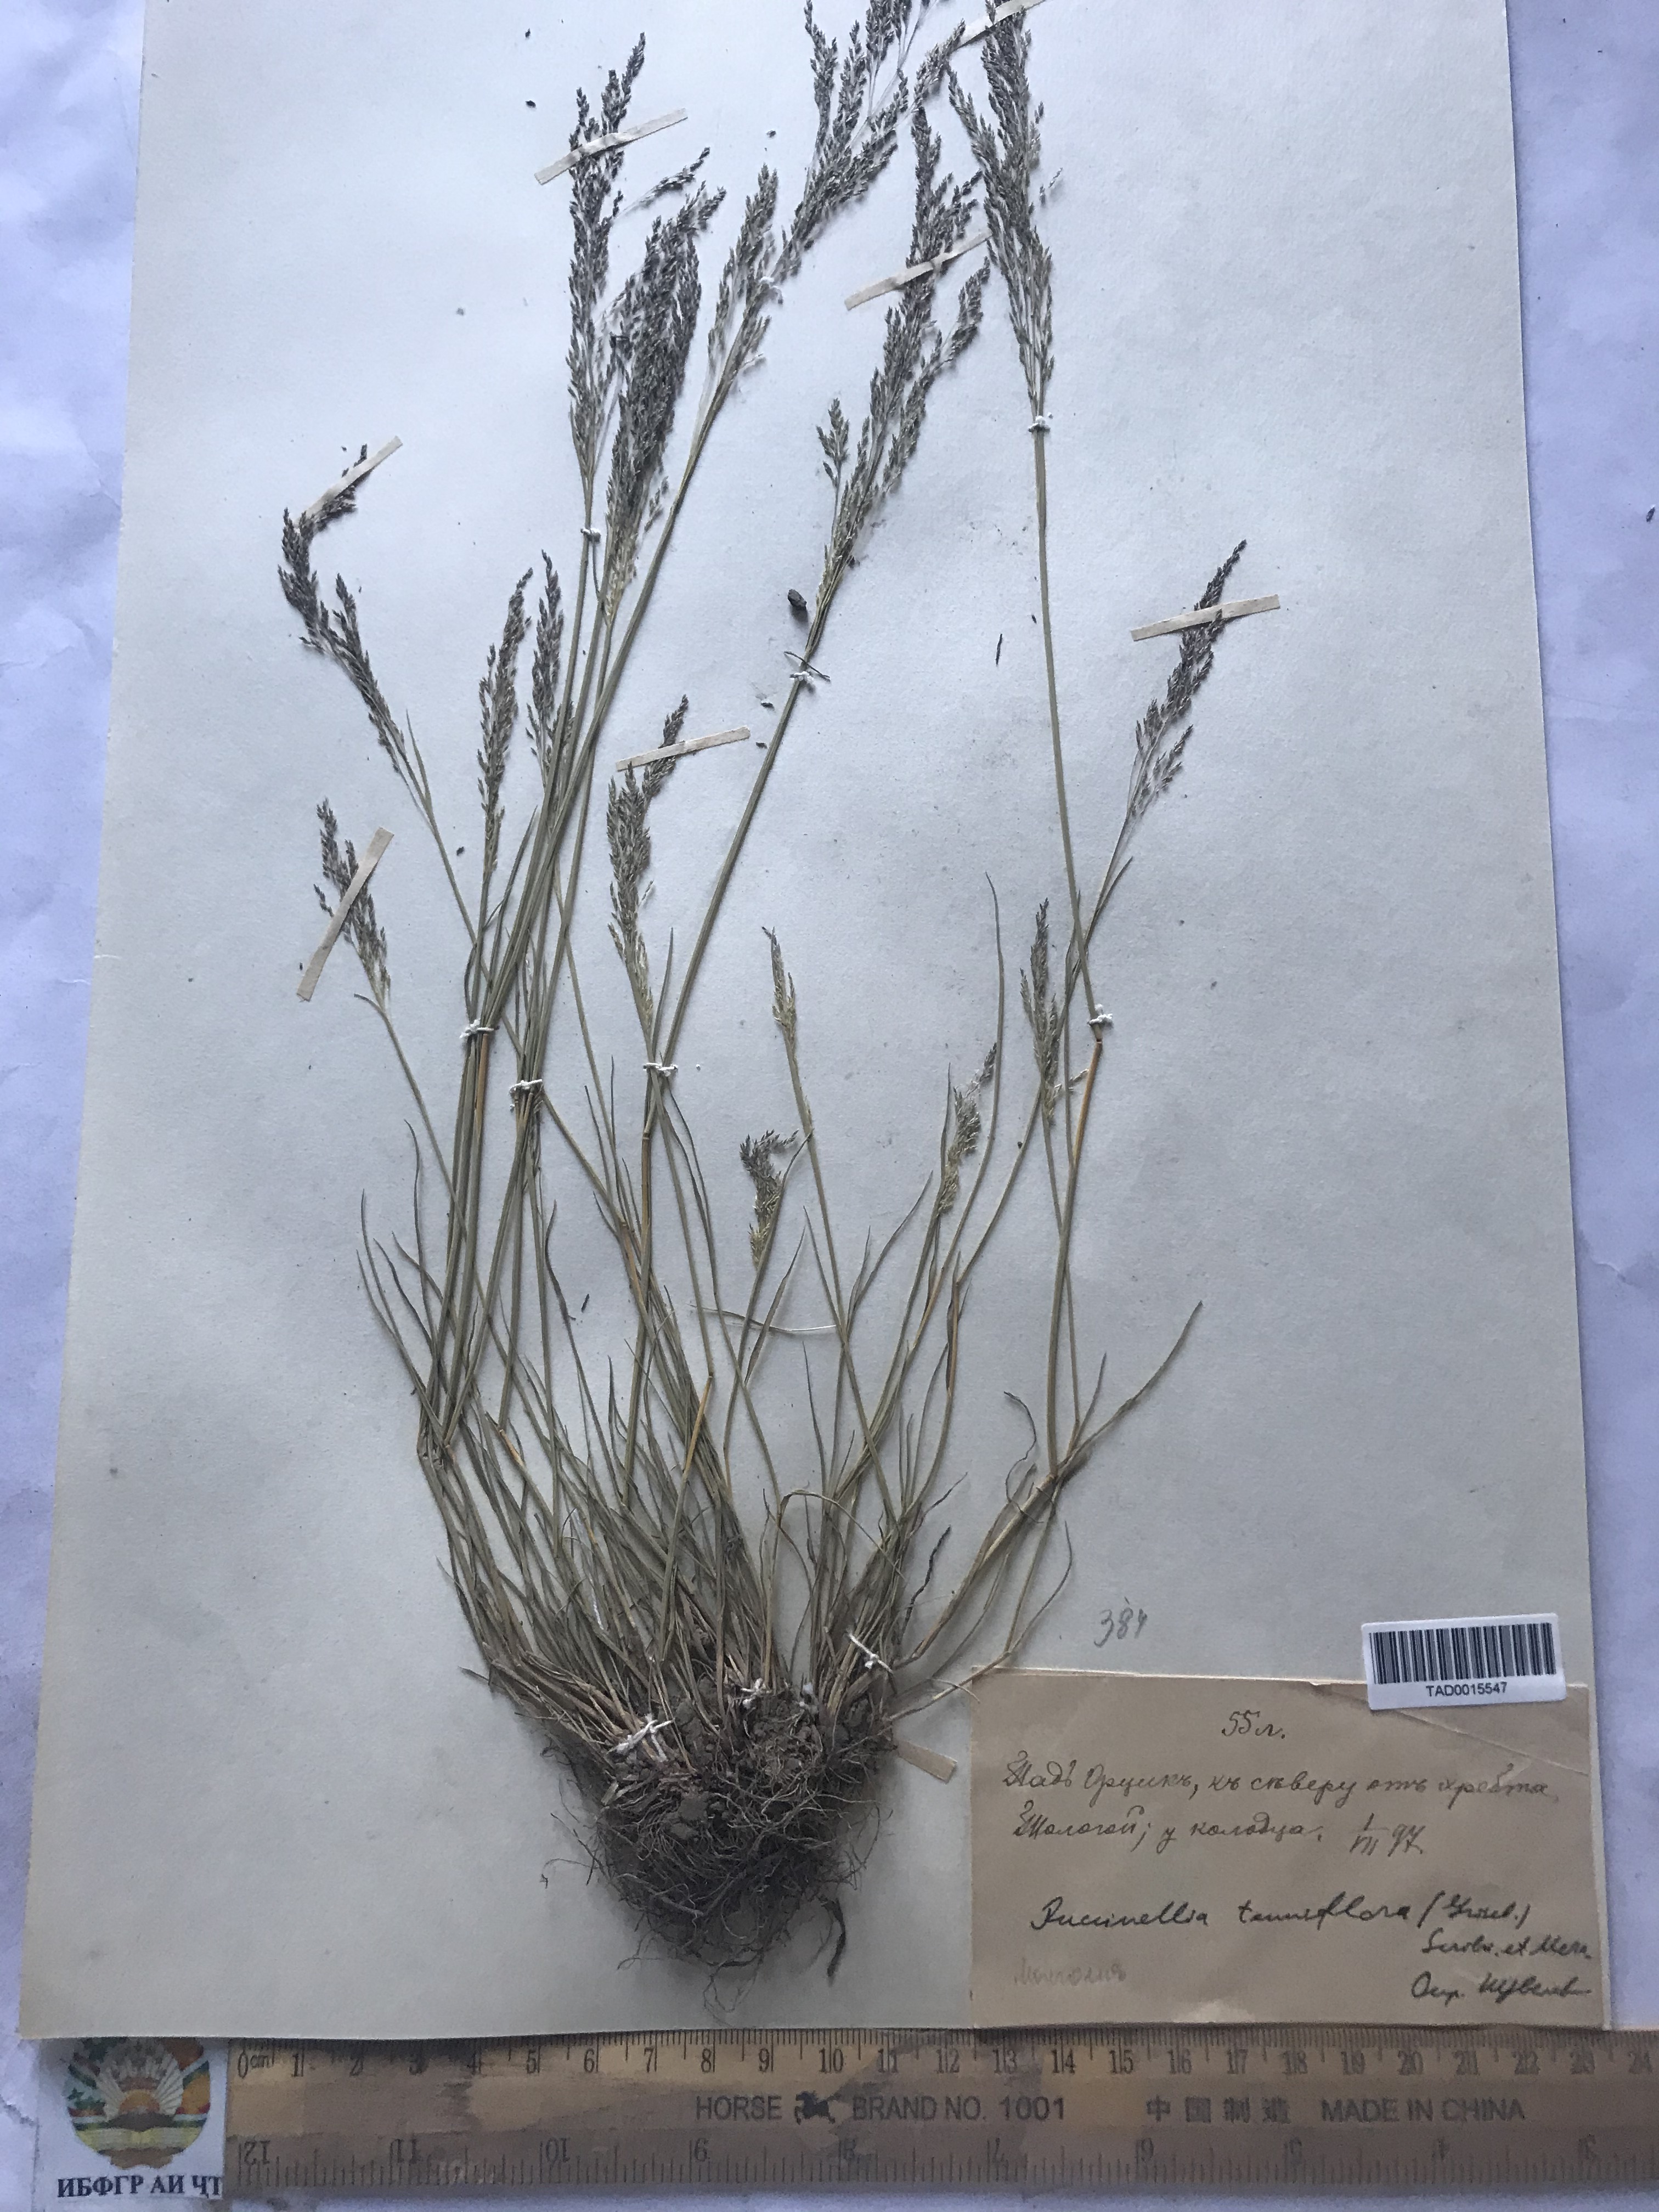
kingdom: Plantae
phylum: Tracheophyta
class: Liliopsida
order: Poales
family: Poaceae
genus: Puccinellia
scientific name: Puccinellia tenuiflora
